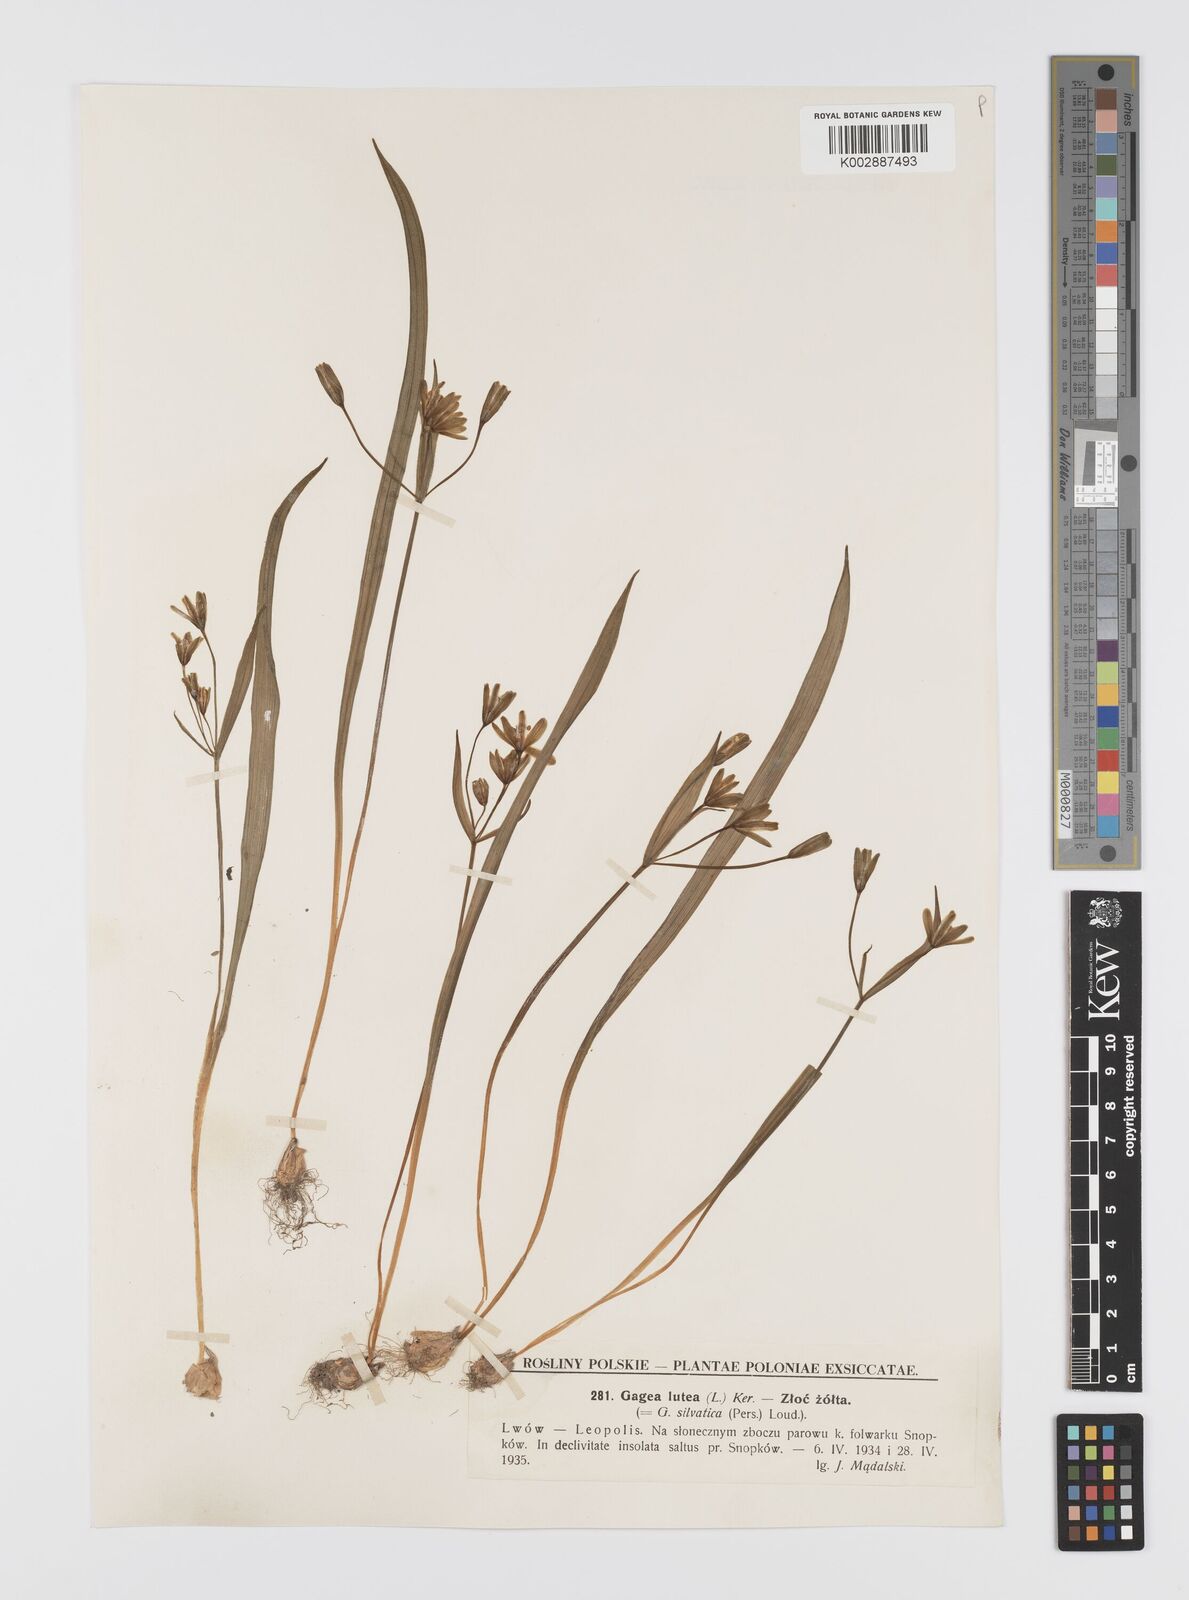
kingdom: Plantae
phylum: Tracheophyta
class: Liliopsida
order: Liliales
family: Liliaceae
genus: Gagea
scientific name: Gagea lutea
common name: Yellow star-of-bethlehem
